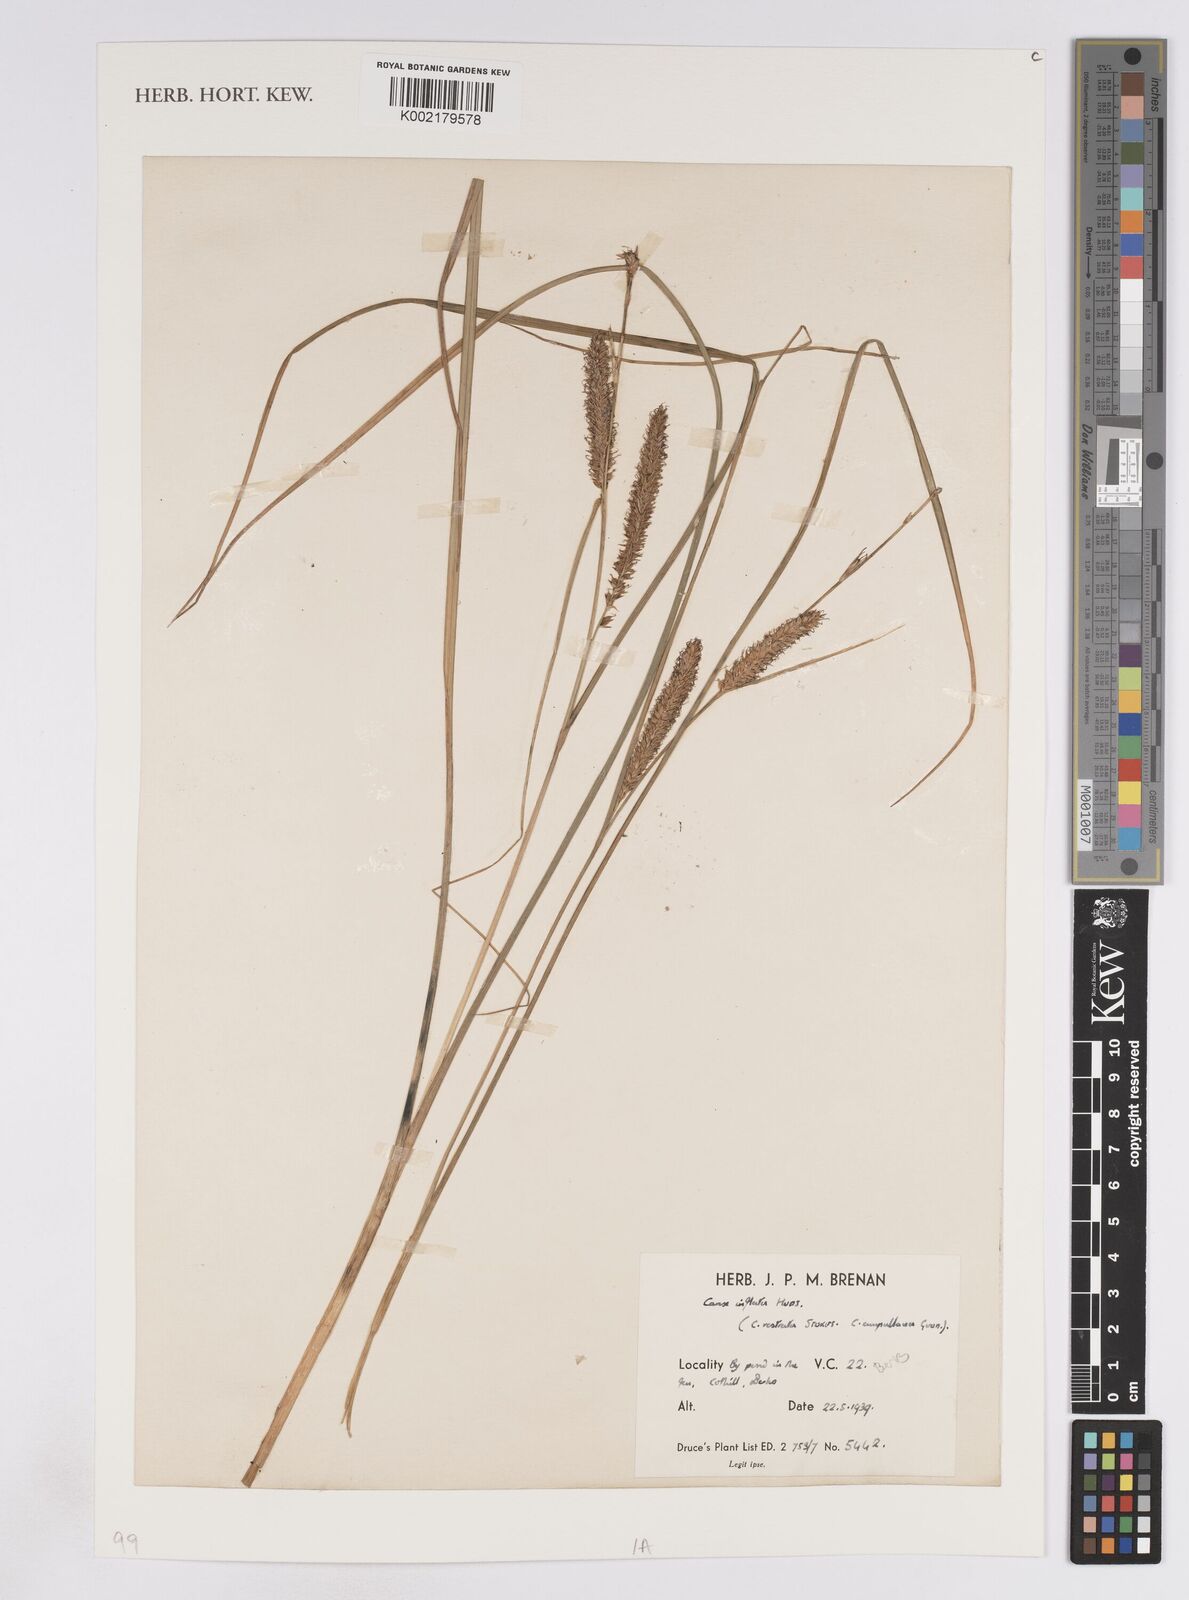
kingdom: Plantae
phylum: Tracheophyta
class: Liliopsida
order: Poales
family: Cyperaceae
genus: Carex
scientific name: Carex rostrata
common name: Bottle sedge
